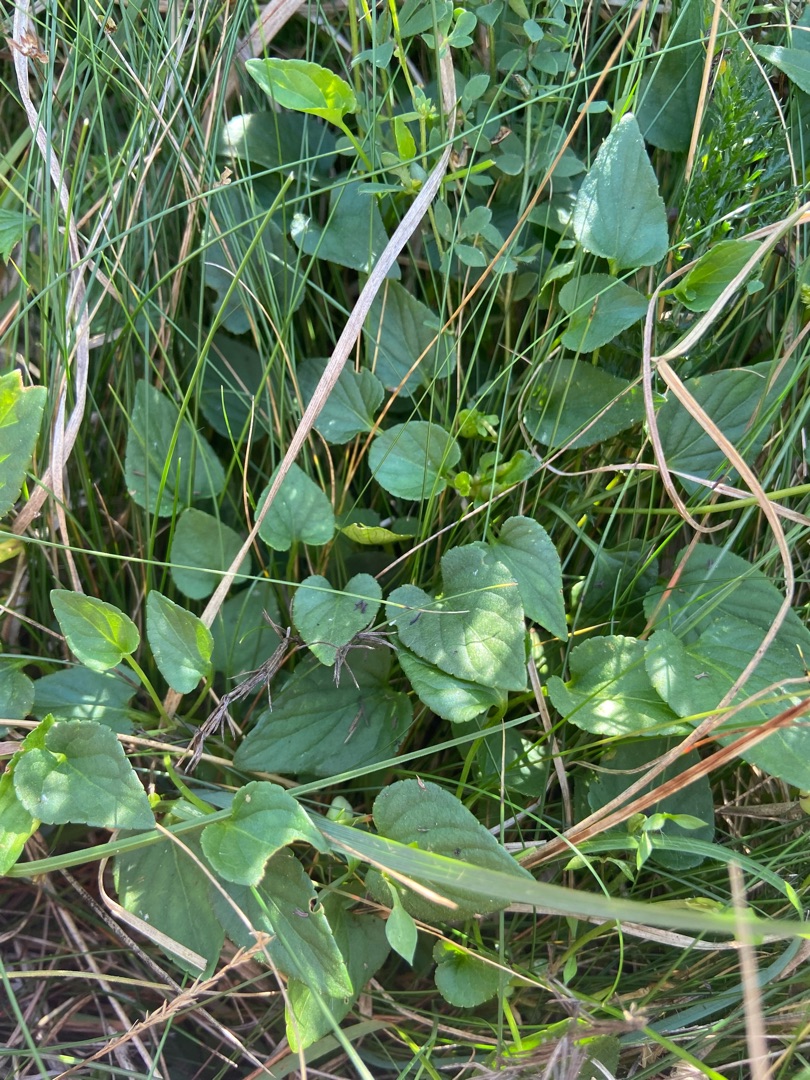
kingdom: Plantae
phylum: Tracheophyta
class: Magnoliopsida
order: Malpighiales
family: Violaceae
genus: Viola
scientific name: Viola canina
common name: Hunde-viol
